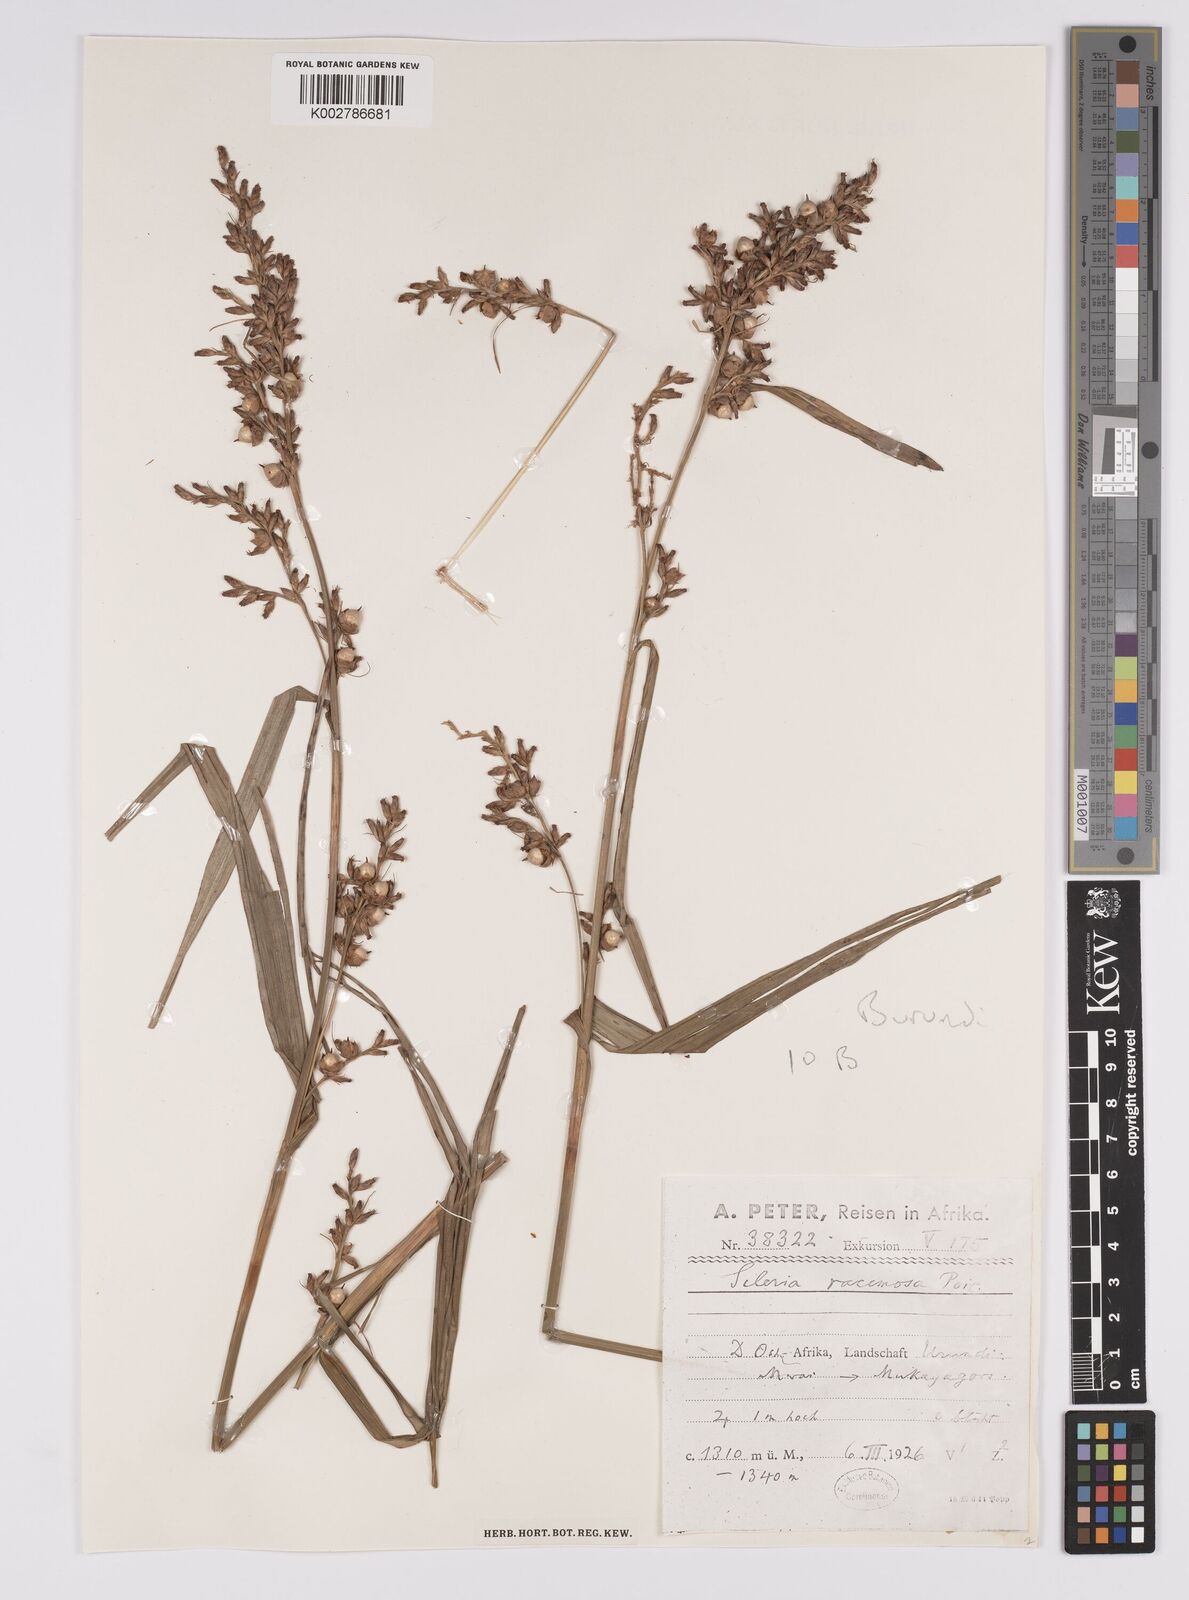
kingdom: Plantae
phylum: Tracheophyta
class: Liliopsida
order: Poales
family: Cyperaceae
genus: Scleria
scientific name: Scleria racemosa
